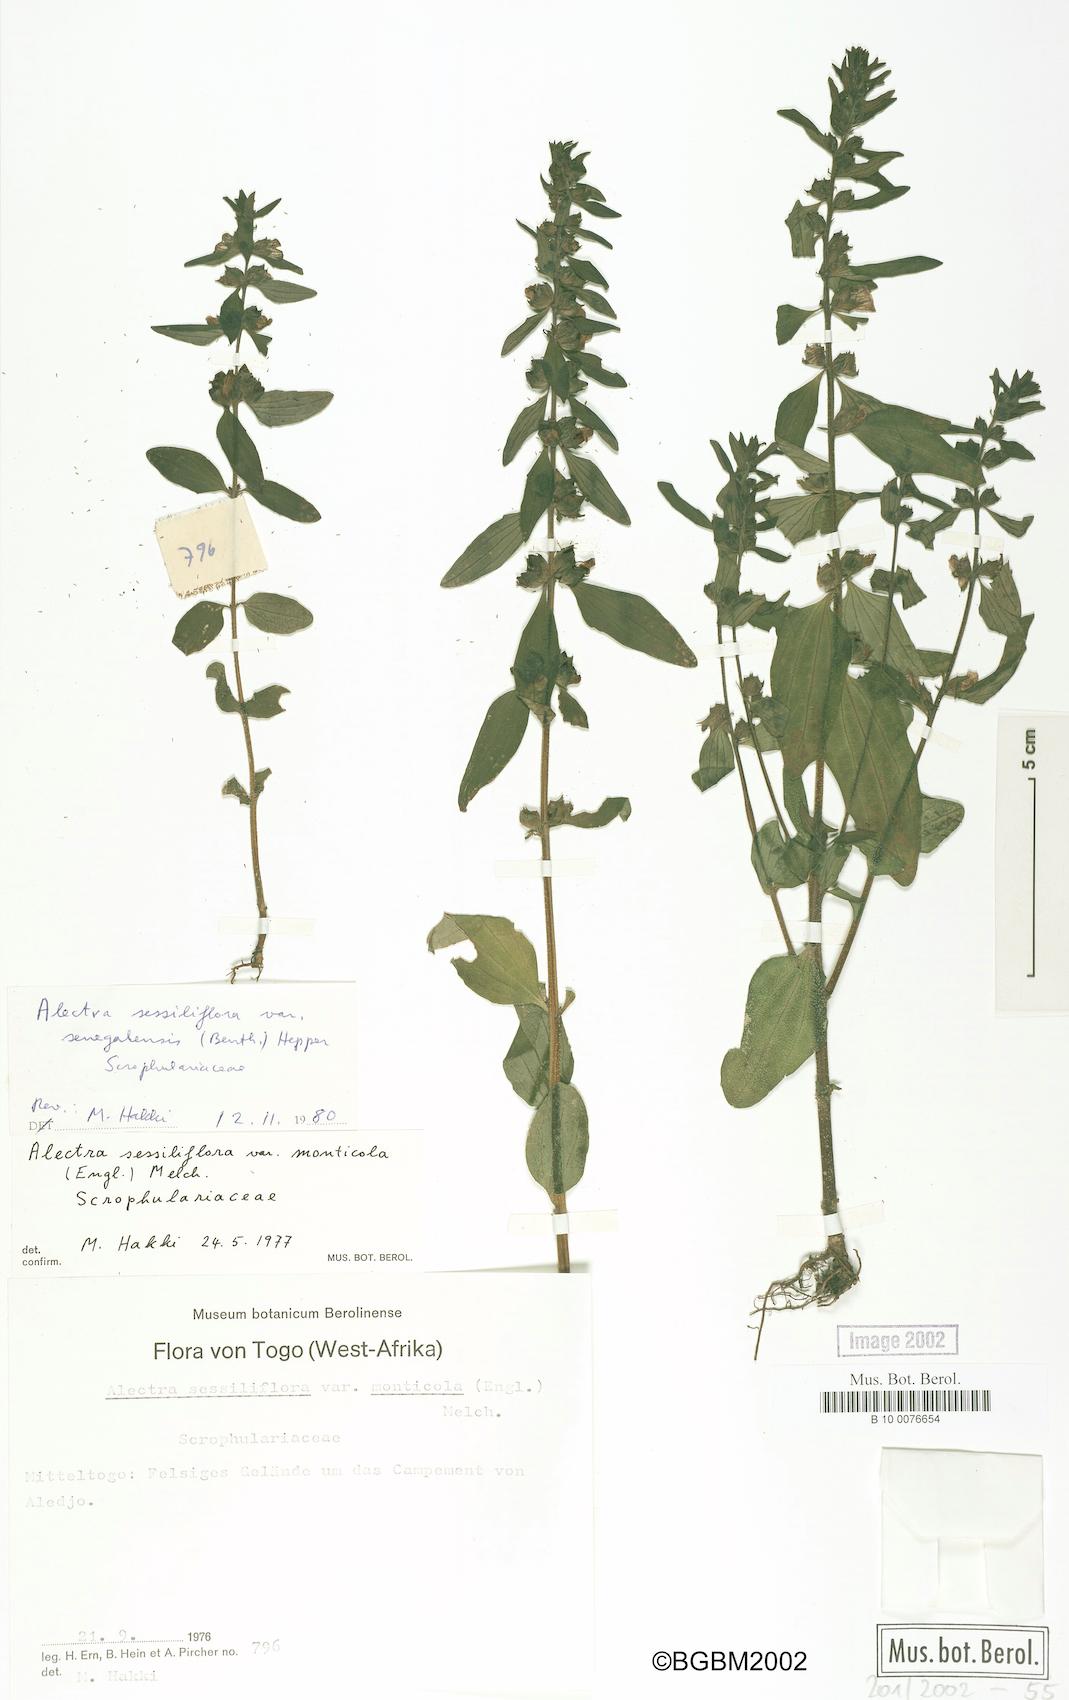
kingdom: Plantae
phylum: Tracheophyta
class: Magnoliopsida
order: Lamiales
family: Orobanchaceae
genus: Alectra
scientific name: Alectra sessiliflora
